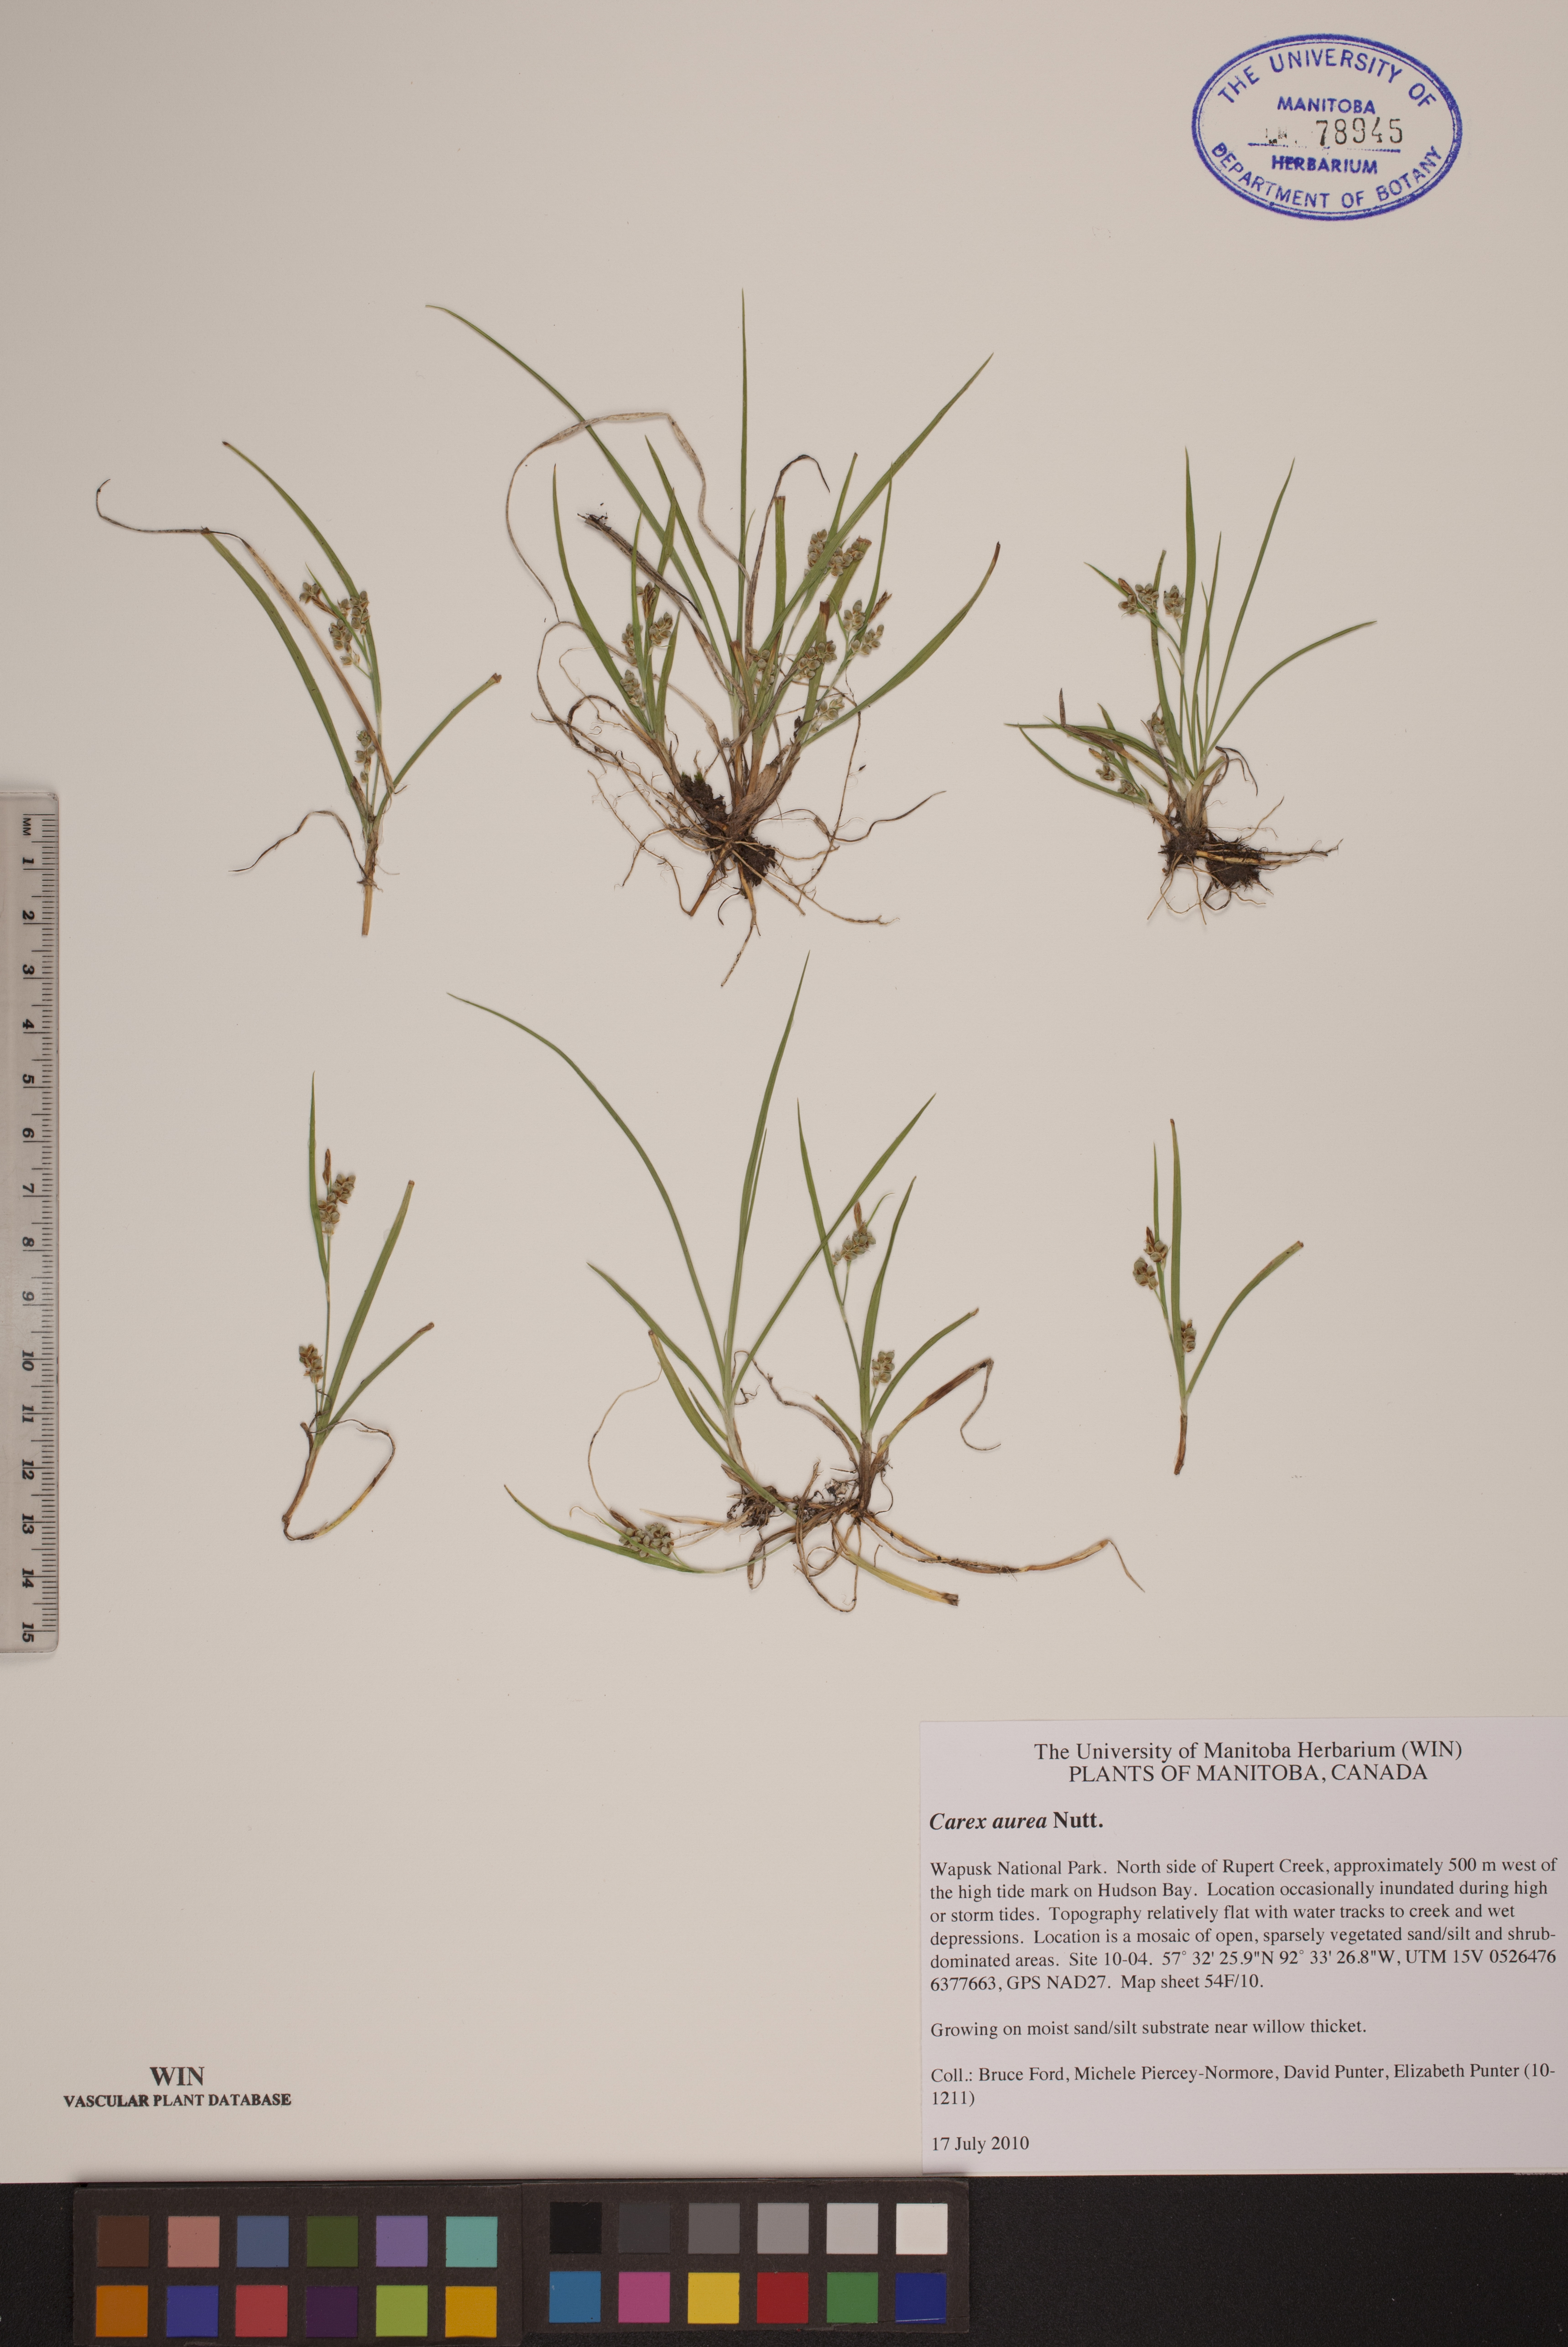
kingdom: Plantae
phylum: Tracheophyta
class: Liliopsida
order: Poales
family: Cyperaceae
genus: Carex
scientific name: Carex aurea
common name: Golden sedge
